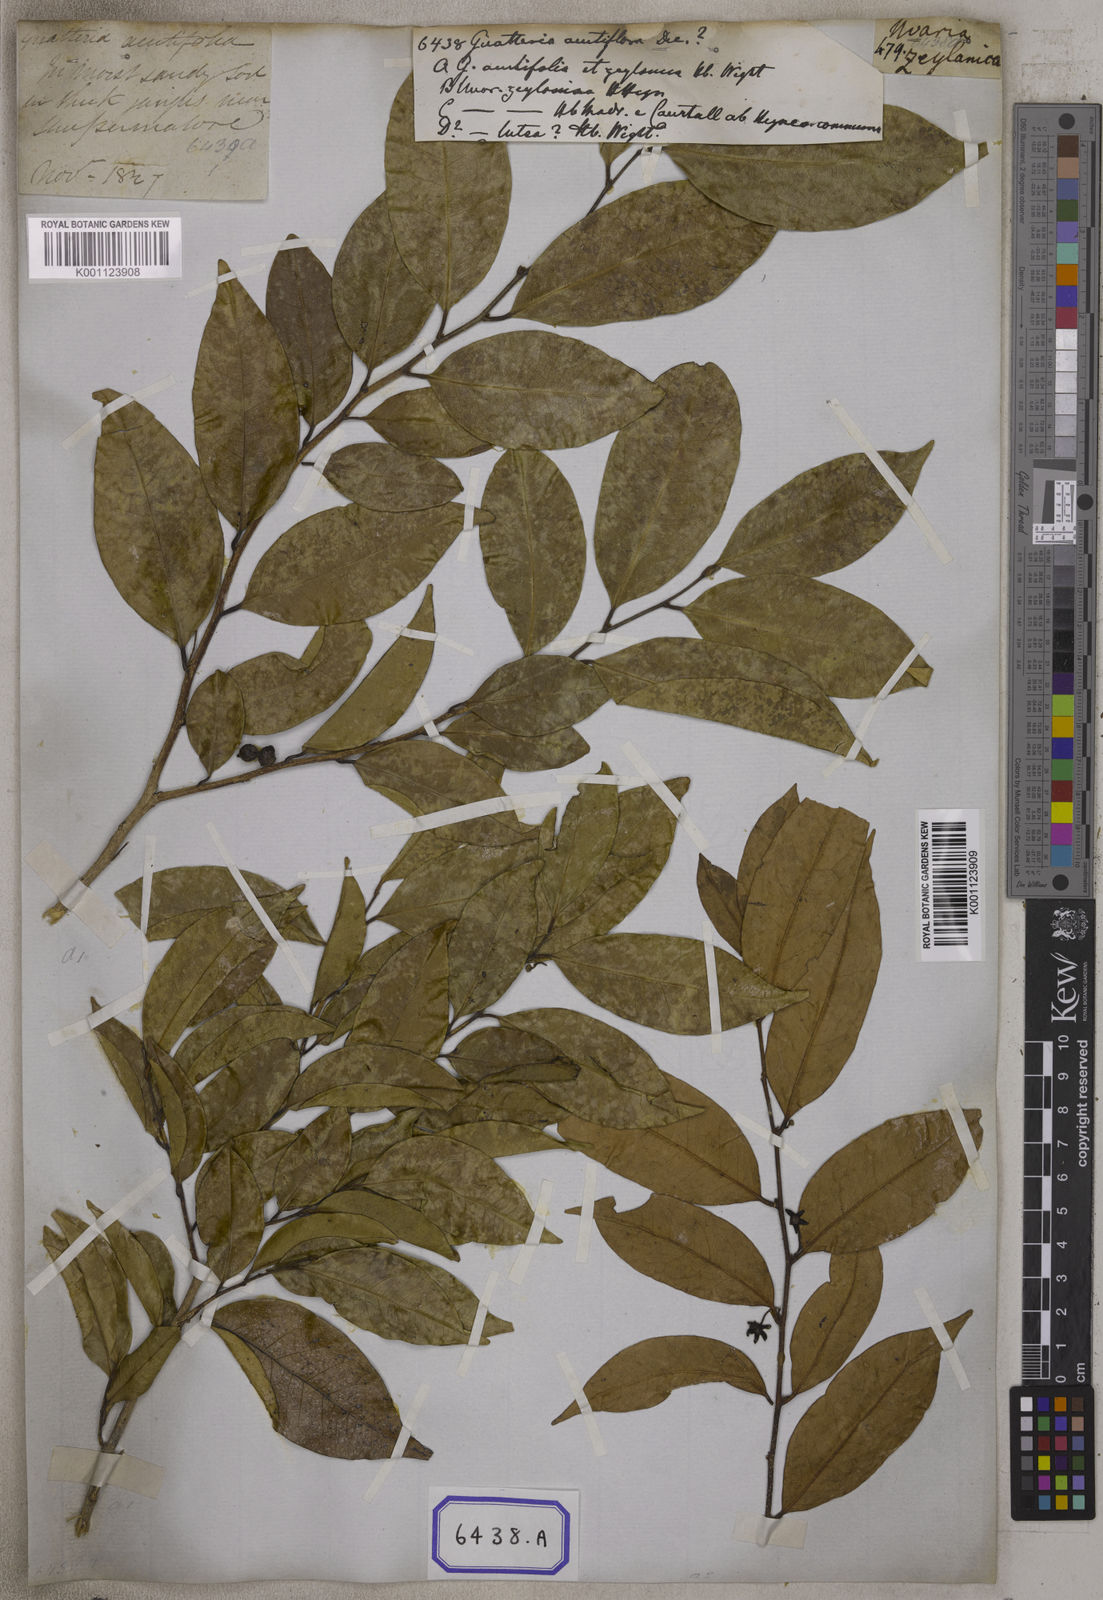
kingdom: Plantae
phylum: Tracheophyta
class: Magnoliopsida
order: Magnoliales
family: Annonaceae
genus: Guatteria
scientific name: Guatteria
